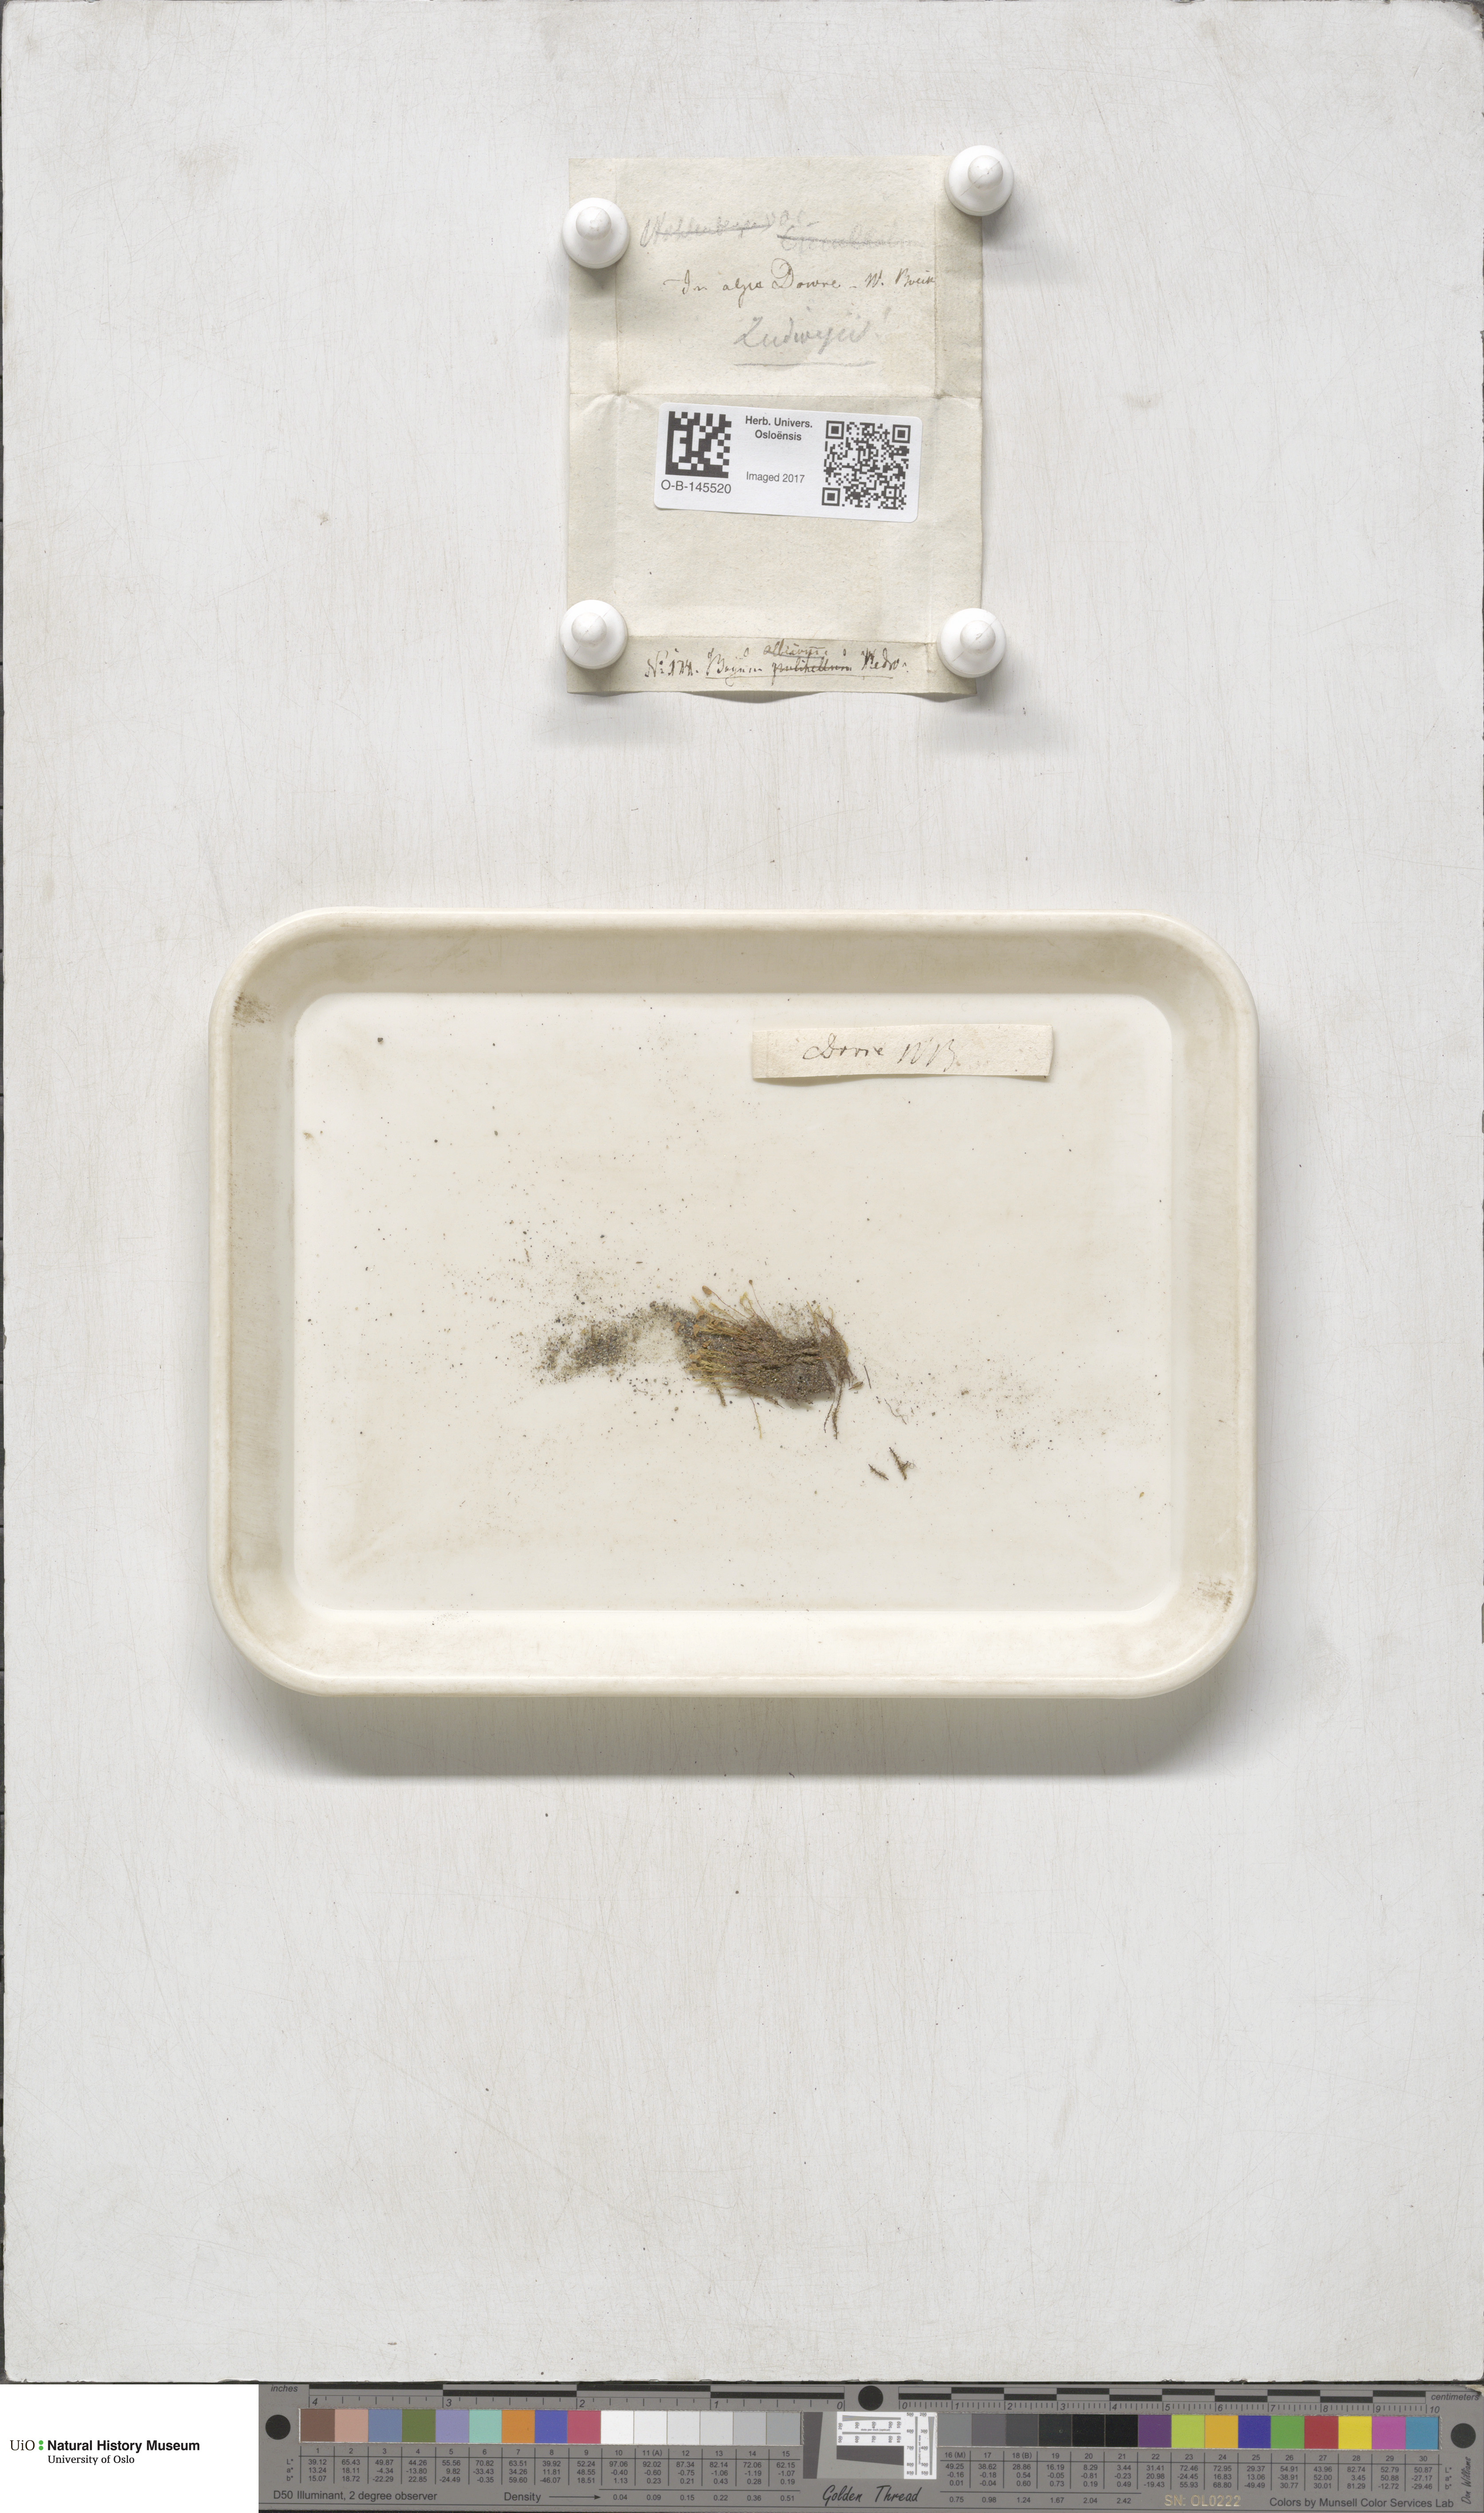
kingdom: Plantae
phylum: Bryophyta
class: Bryopsida
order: Bryales
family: Mniaceae
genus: Pohlia
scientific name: Pohlia ludwigii
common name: Ludwig's thread-moss
